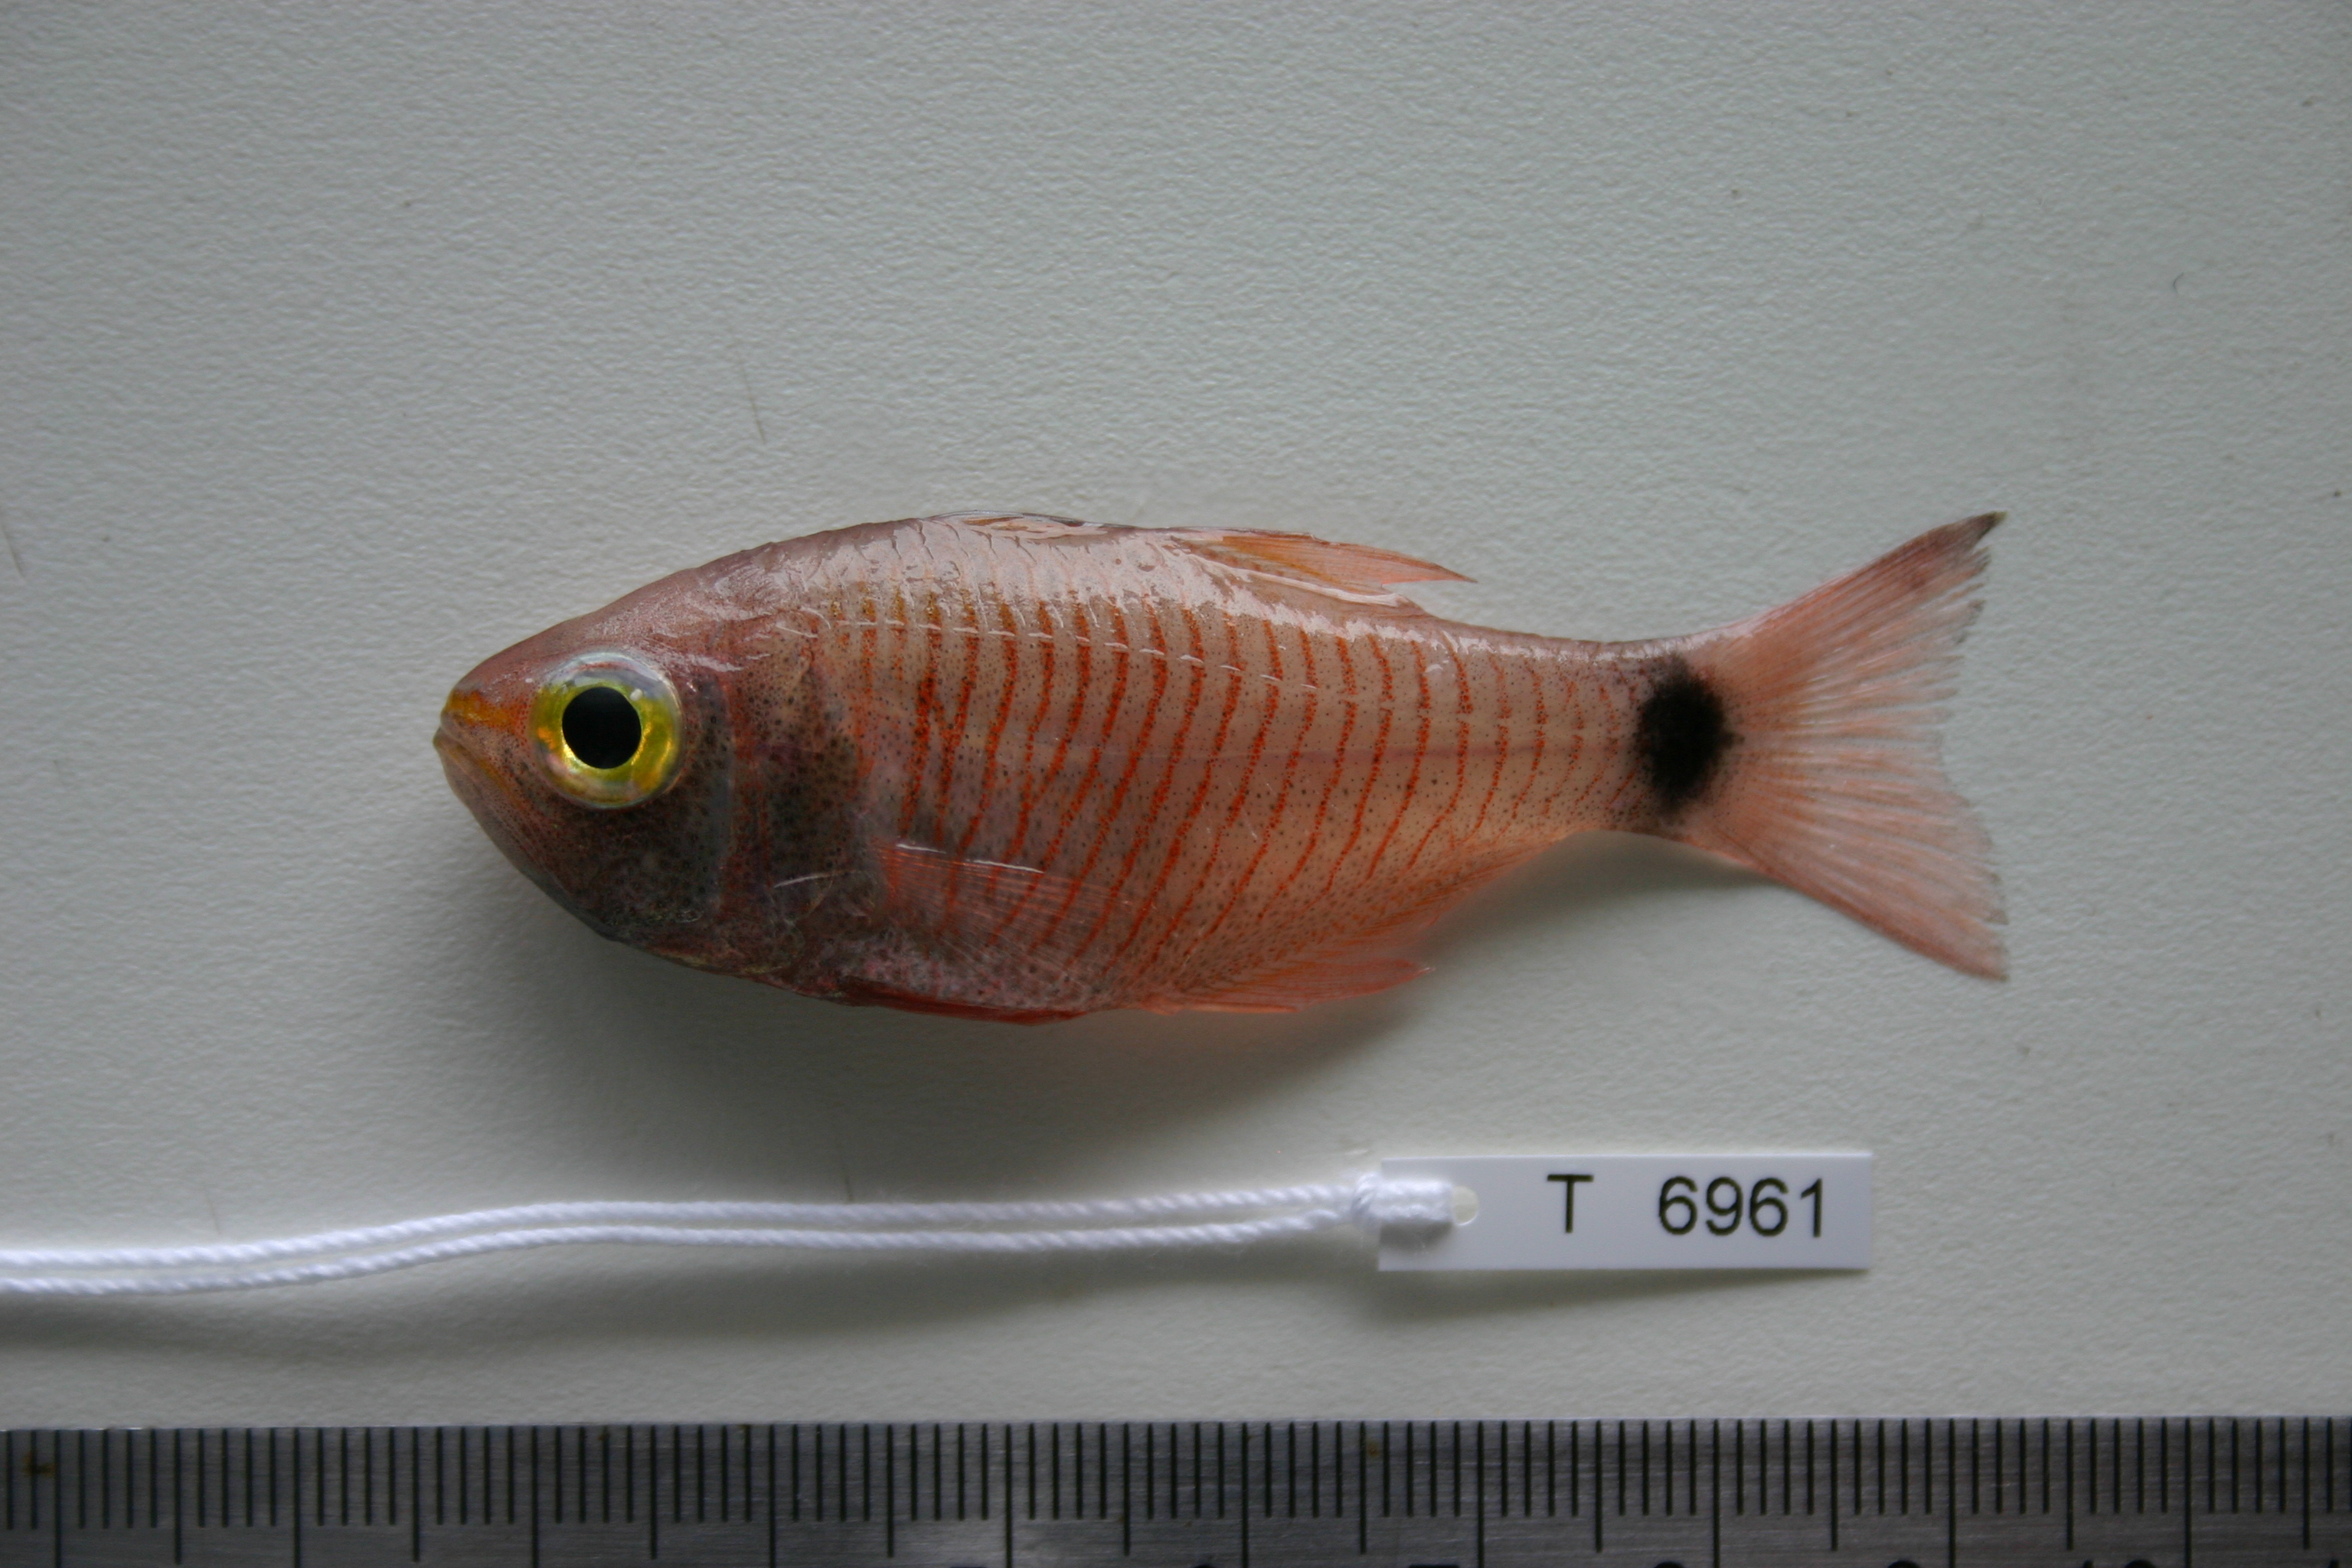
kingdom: Animalia
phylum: Chordata
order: Perciformes
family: Apogonidae
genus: Taeniamia
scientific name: Taeniamia fucata
